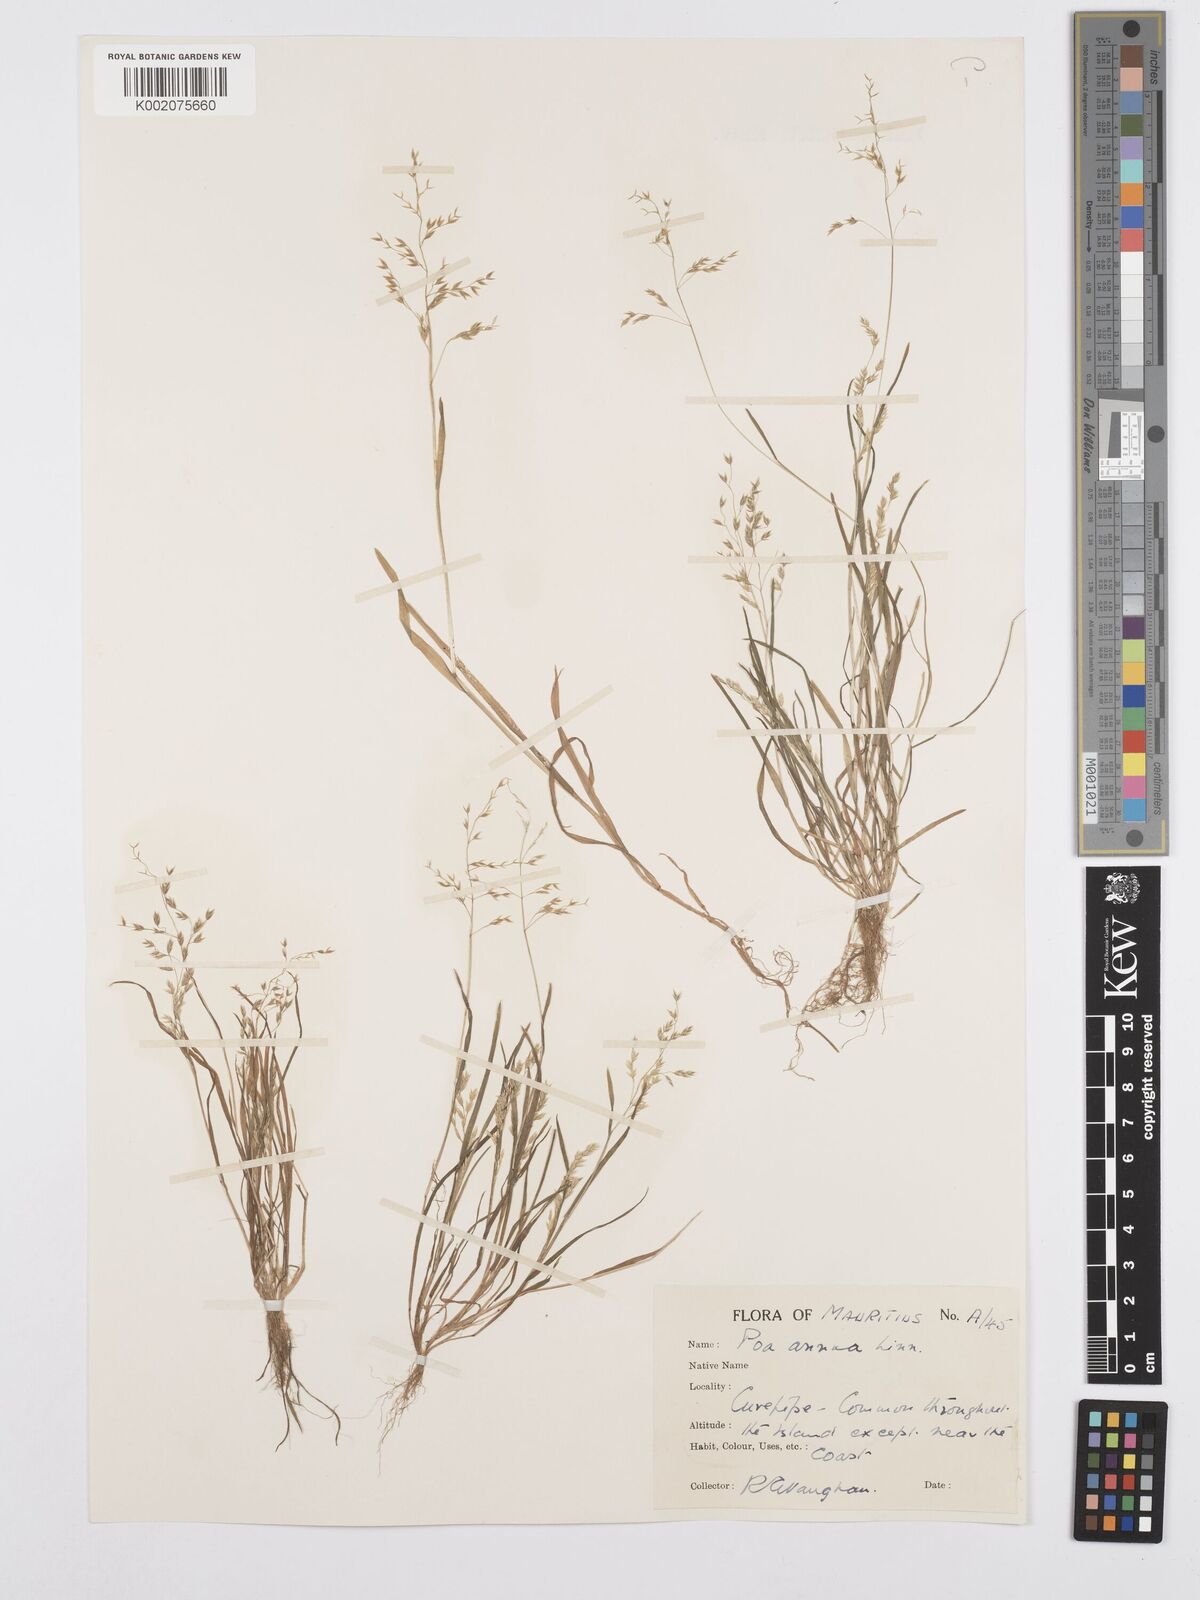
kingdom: Plantae
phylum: Tracheophyta
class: Liliopsida
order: Poales
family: Poaceae
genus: Poa
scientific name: Poa annua
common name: Annual bluegrass
